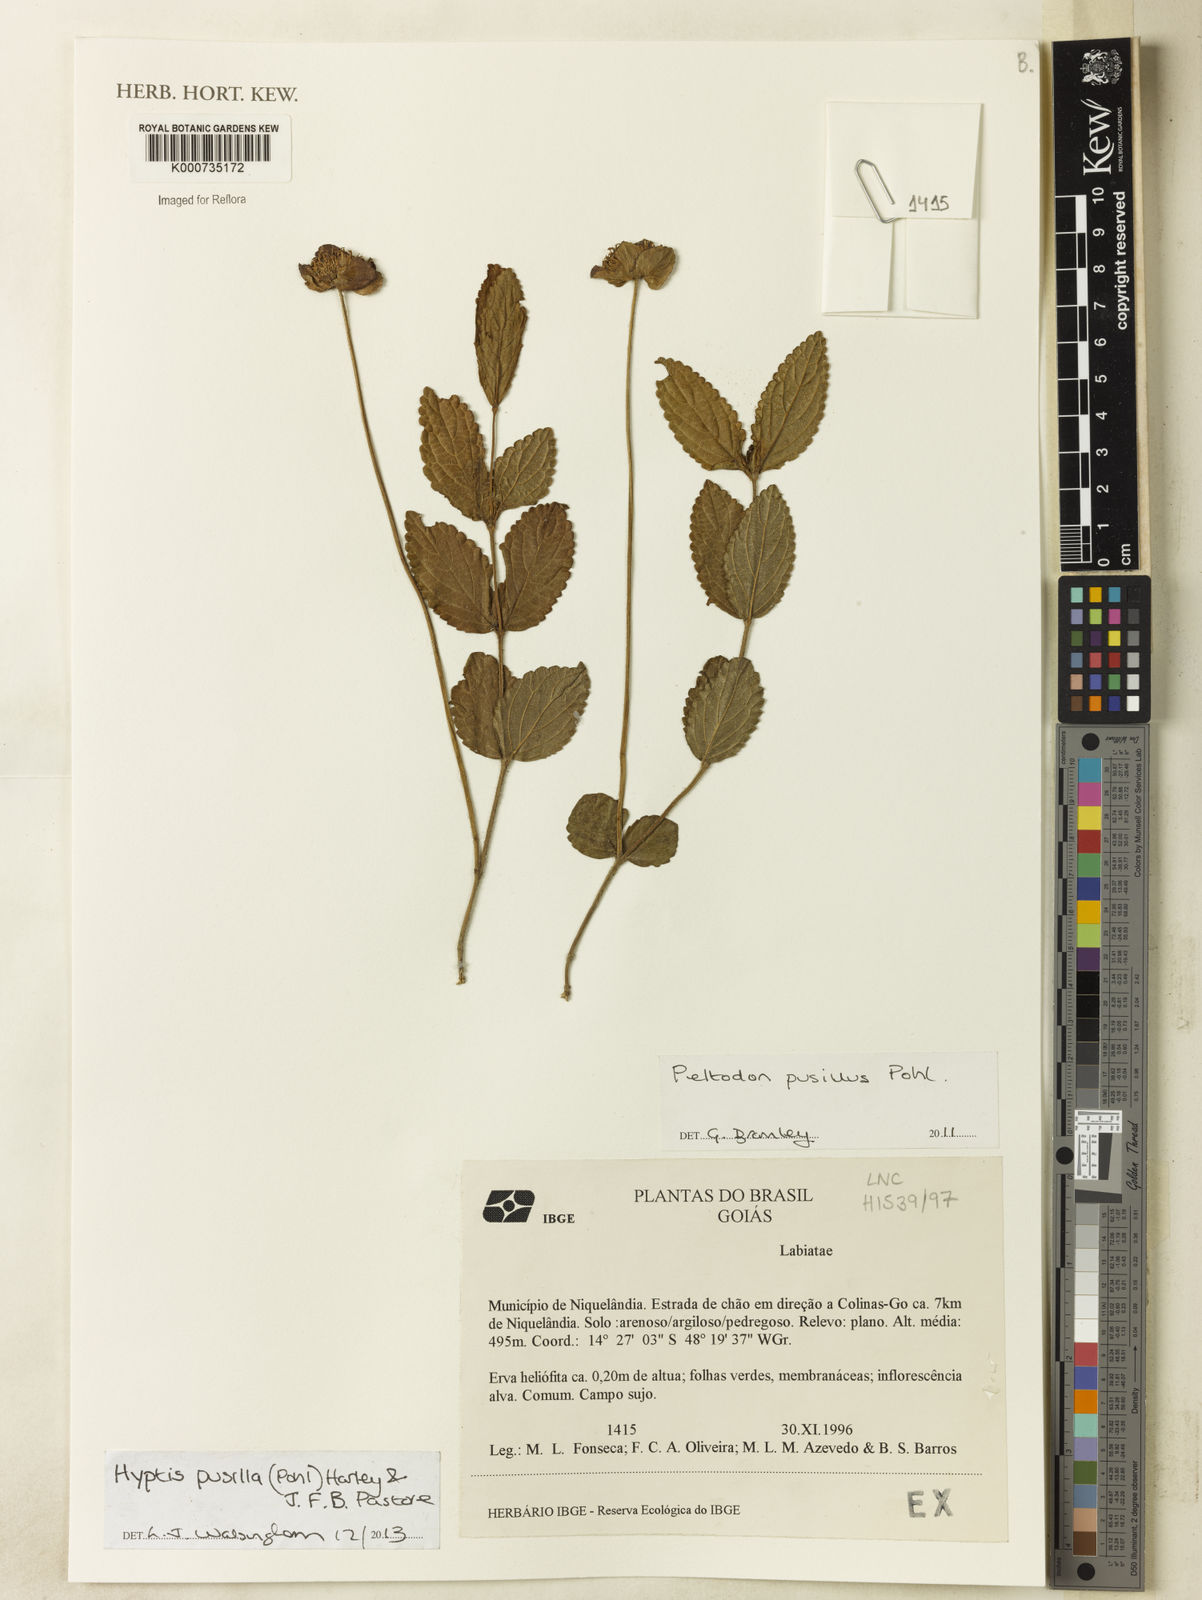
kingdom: Plantae
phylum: Tracheophyta
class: Magnoliopsida
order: Lamiales
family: Lamiaceae
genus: Hyptis
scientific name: Hyptis pusilla
